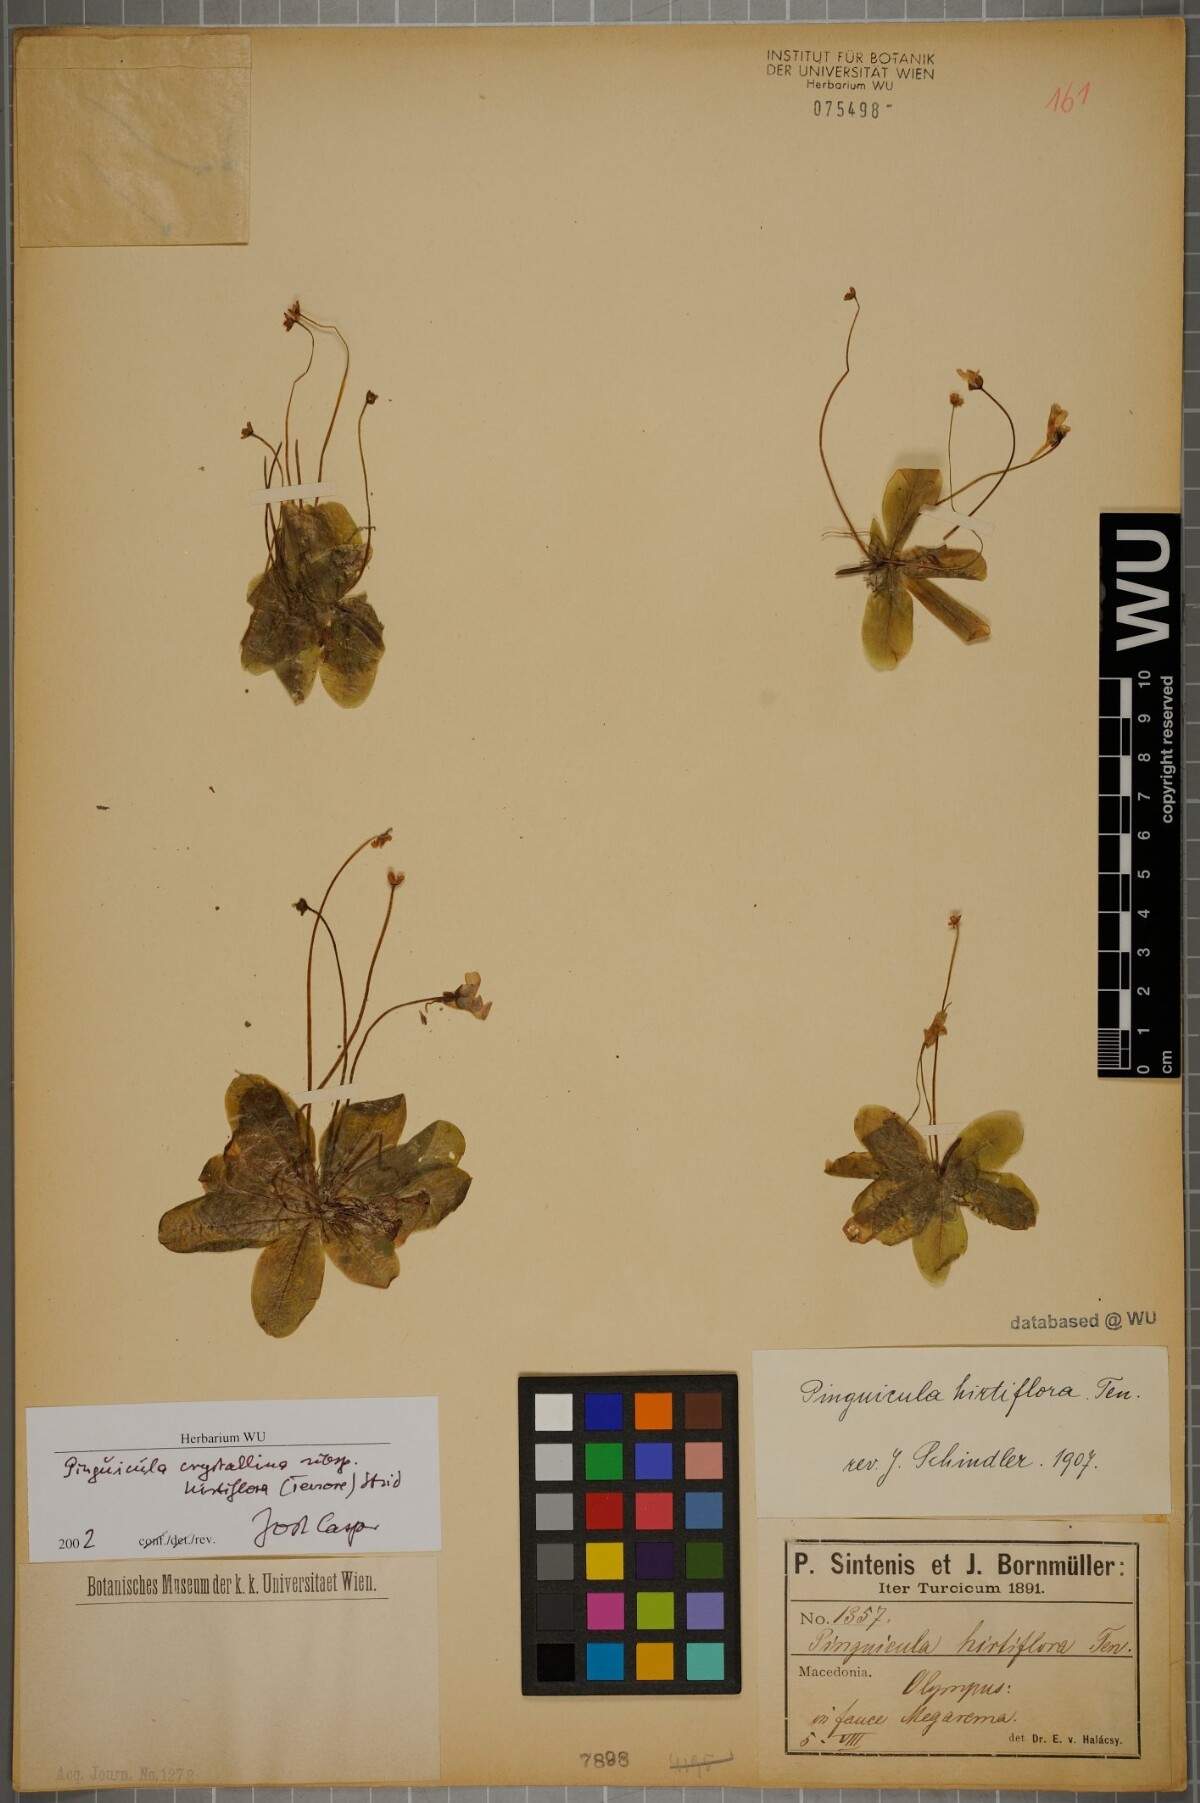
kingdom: Plantae
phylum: Tracheophyta
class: Magnoliopsida
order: Lamiales
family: Lentibulariaceae
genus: Pinguicula
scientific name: Pinguicula crystallina
